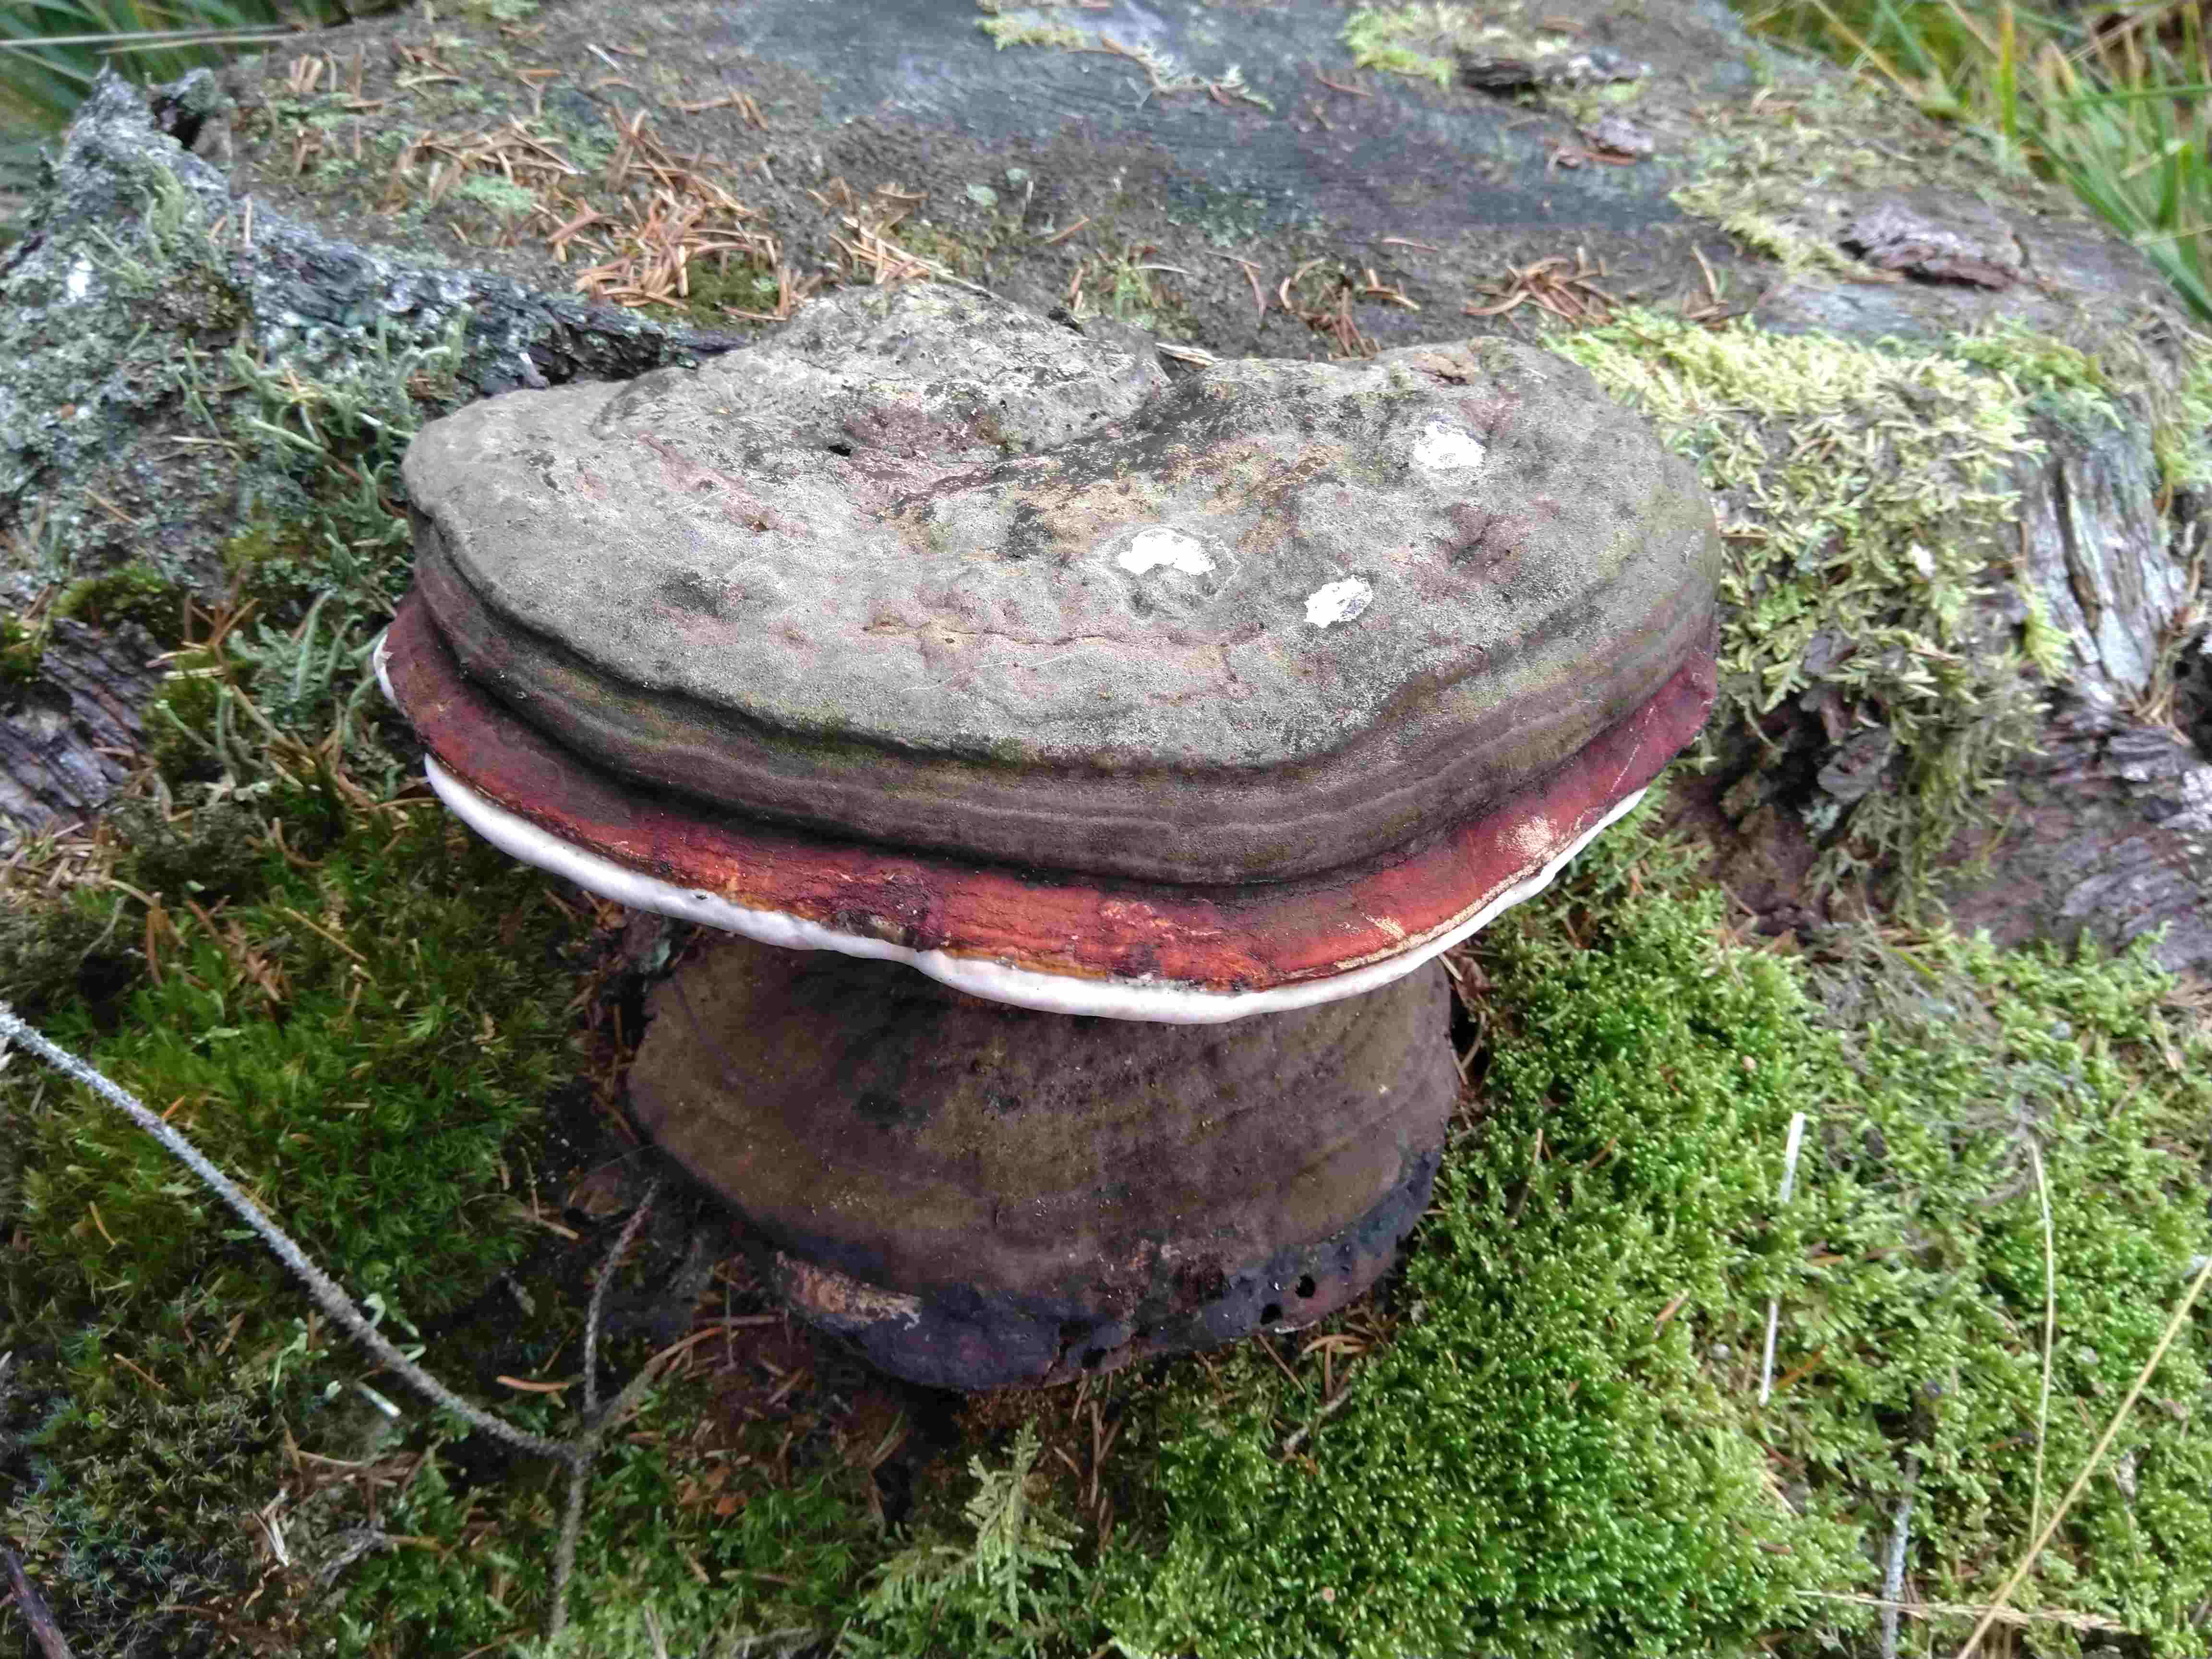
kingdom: Fungi
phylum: Basidiomycota
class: Agaricomycetes
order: Polyporales
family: Fomitopsidaceae
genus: Fomitopsis
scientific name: Fomitopsis pinicola
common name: randbæltet hovporesvamp
